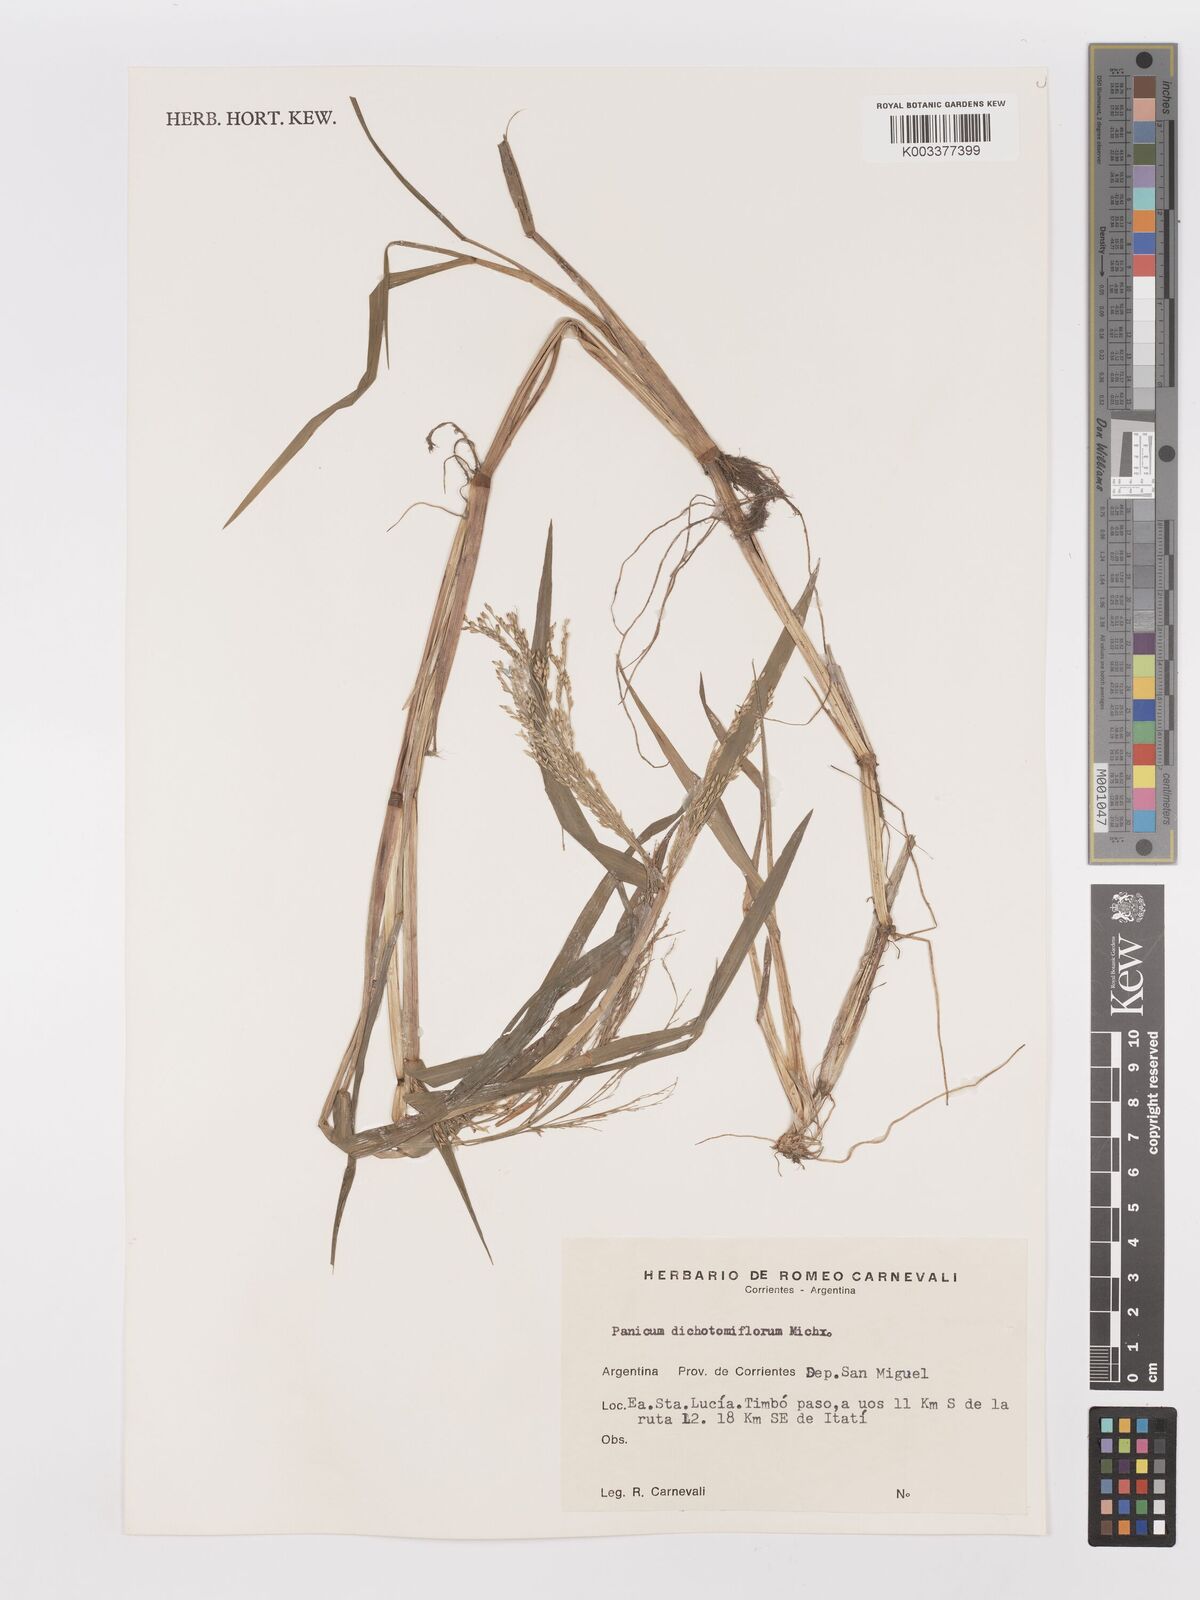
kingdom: Plantae
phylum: Tracheophyta
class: Liliopsida
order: Poales
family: Poaceae
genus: Panicum
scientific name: Panicum dichotomiflorum
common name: Autumn millet
